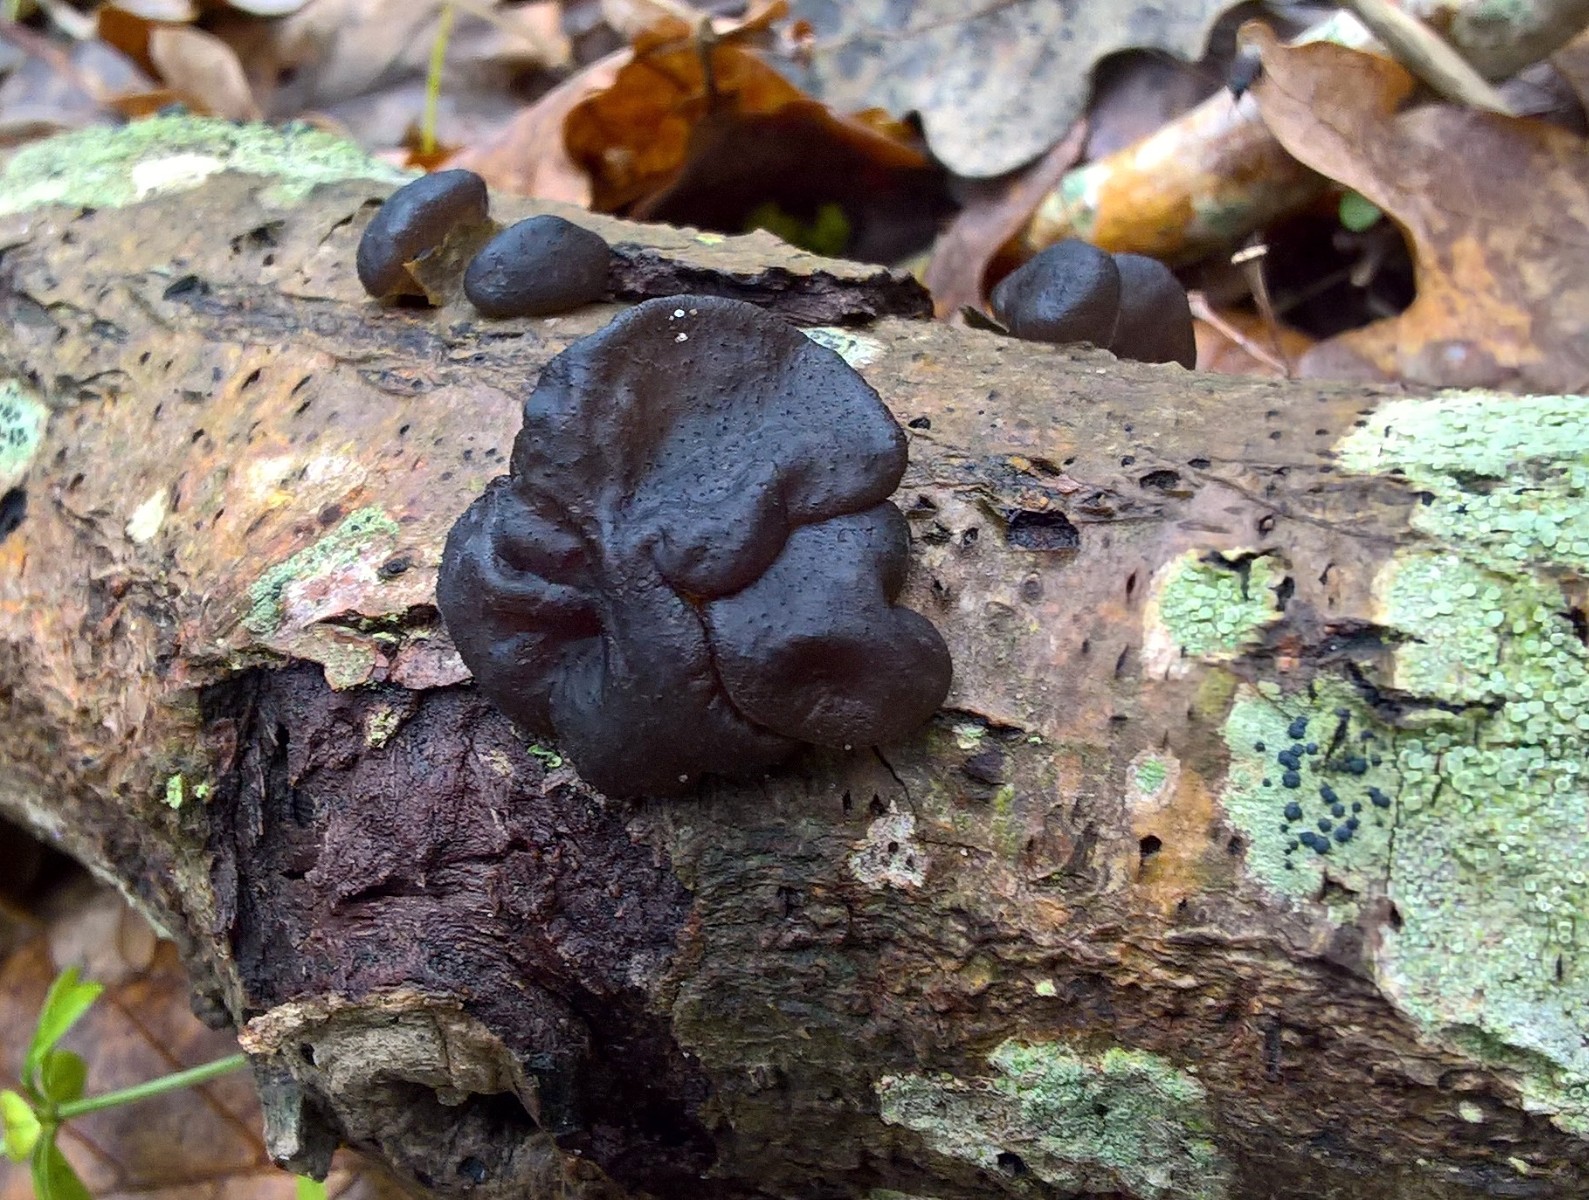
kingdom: Fungi
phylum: Basidiomycota
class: Agaricomycetes
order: Auriculariales
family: Auriculariaceae
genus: Exidia
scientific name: Exidia glandulosa
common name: ege-bævretop
